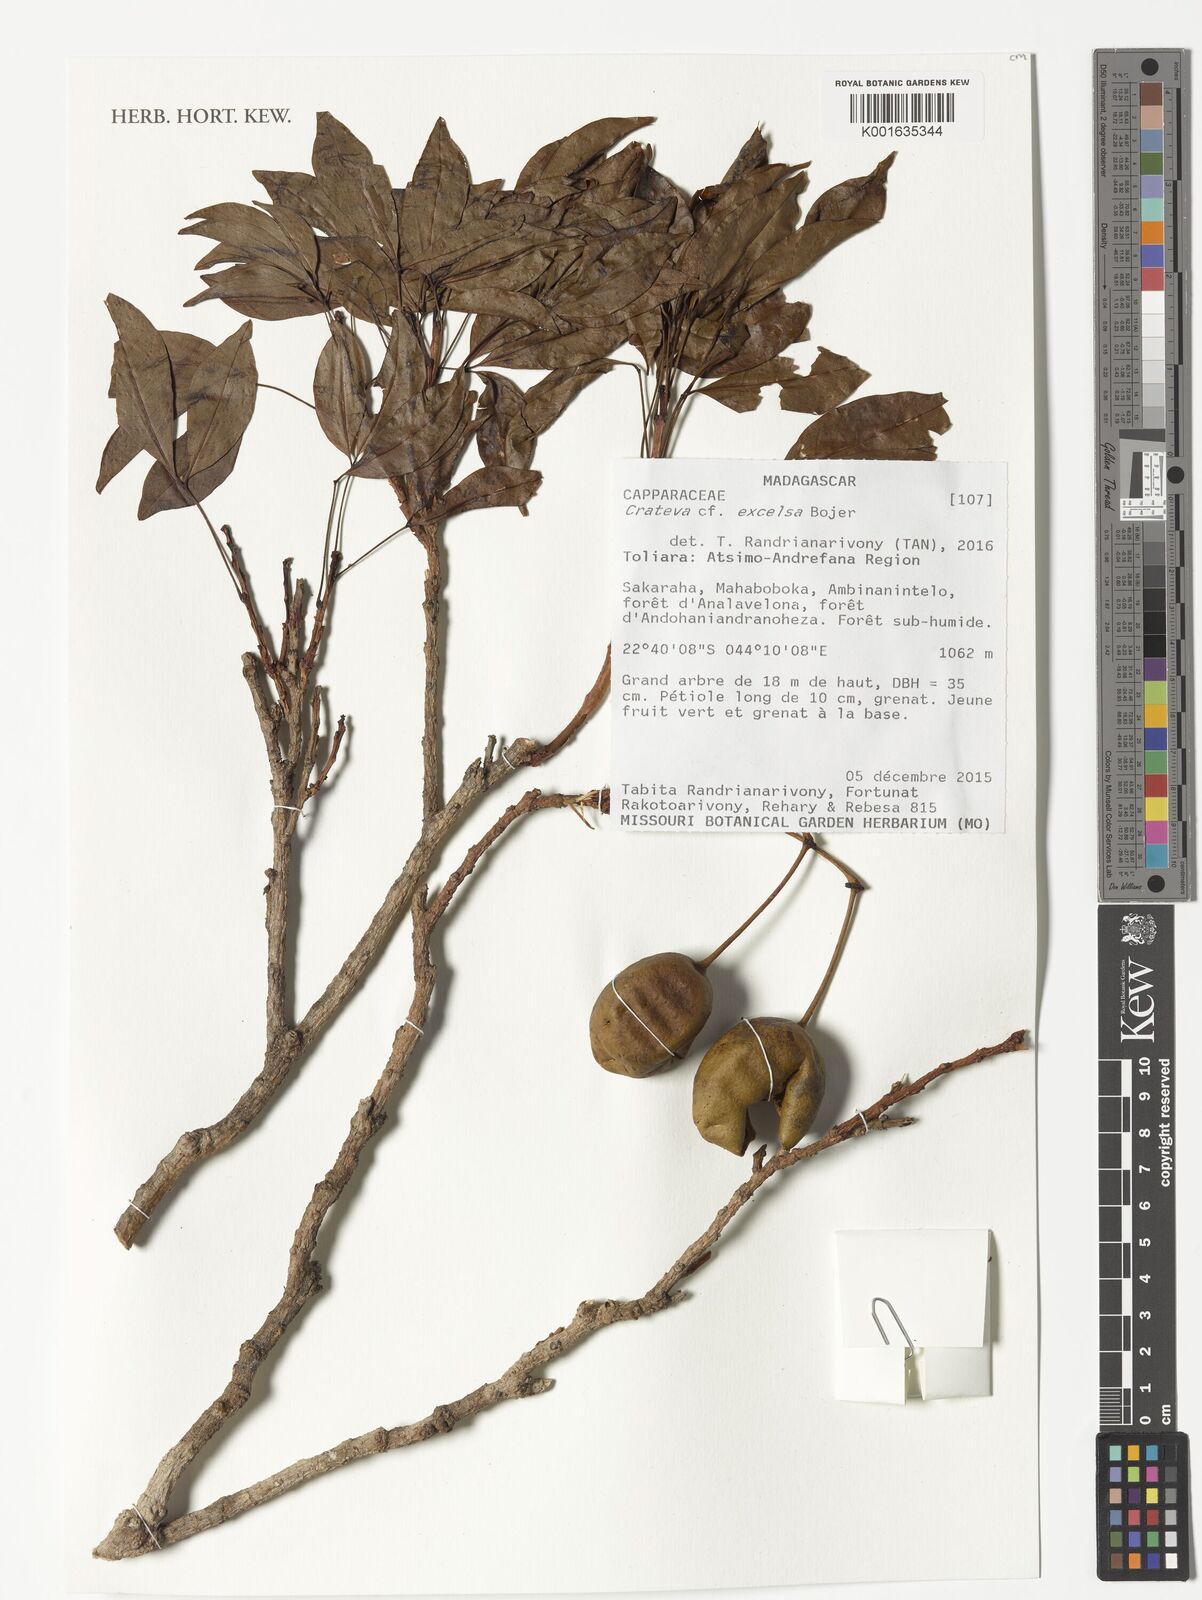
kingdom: Plantae
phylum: Tracheophyta
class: Magnoliopsida
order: Brassicales
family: Capparaceae
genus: Crateva
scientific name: Crateva excelsa
